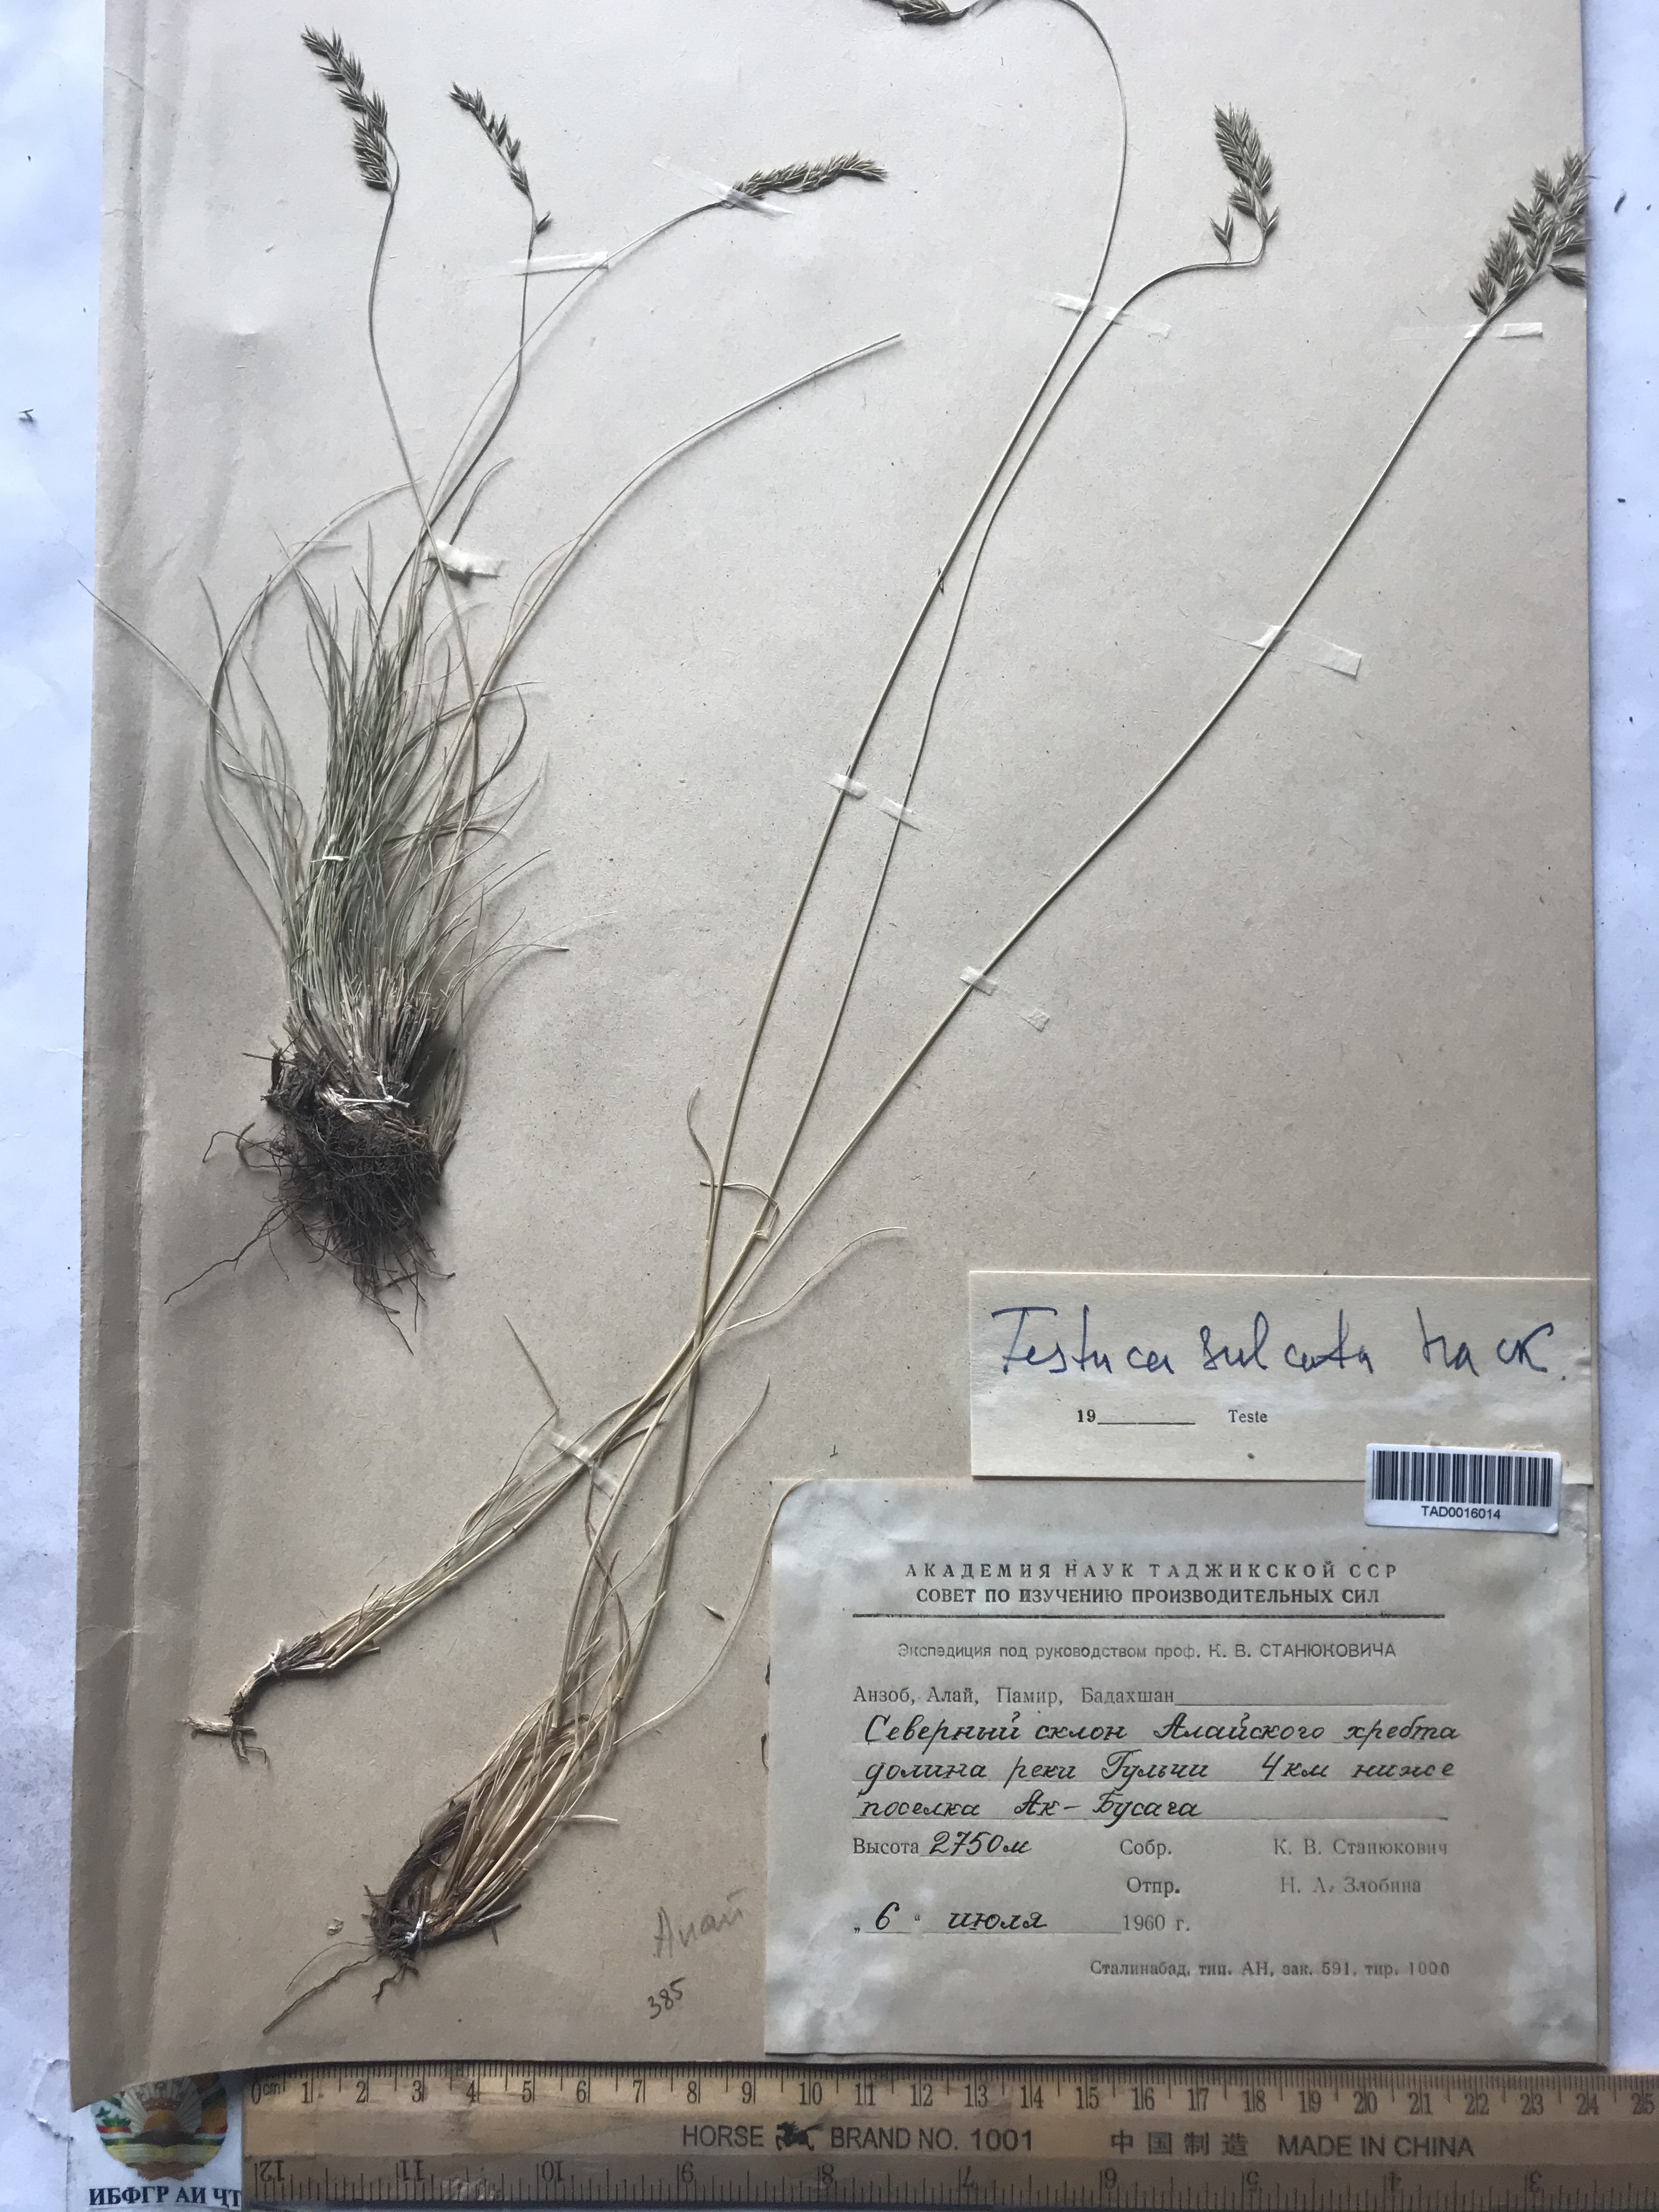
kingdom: Plantae
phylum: Tracheophyta
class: Liliopsida
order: Poales
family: Poaceae
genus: Festuca
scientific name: Festuca sulcata
